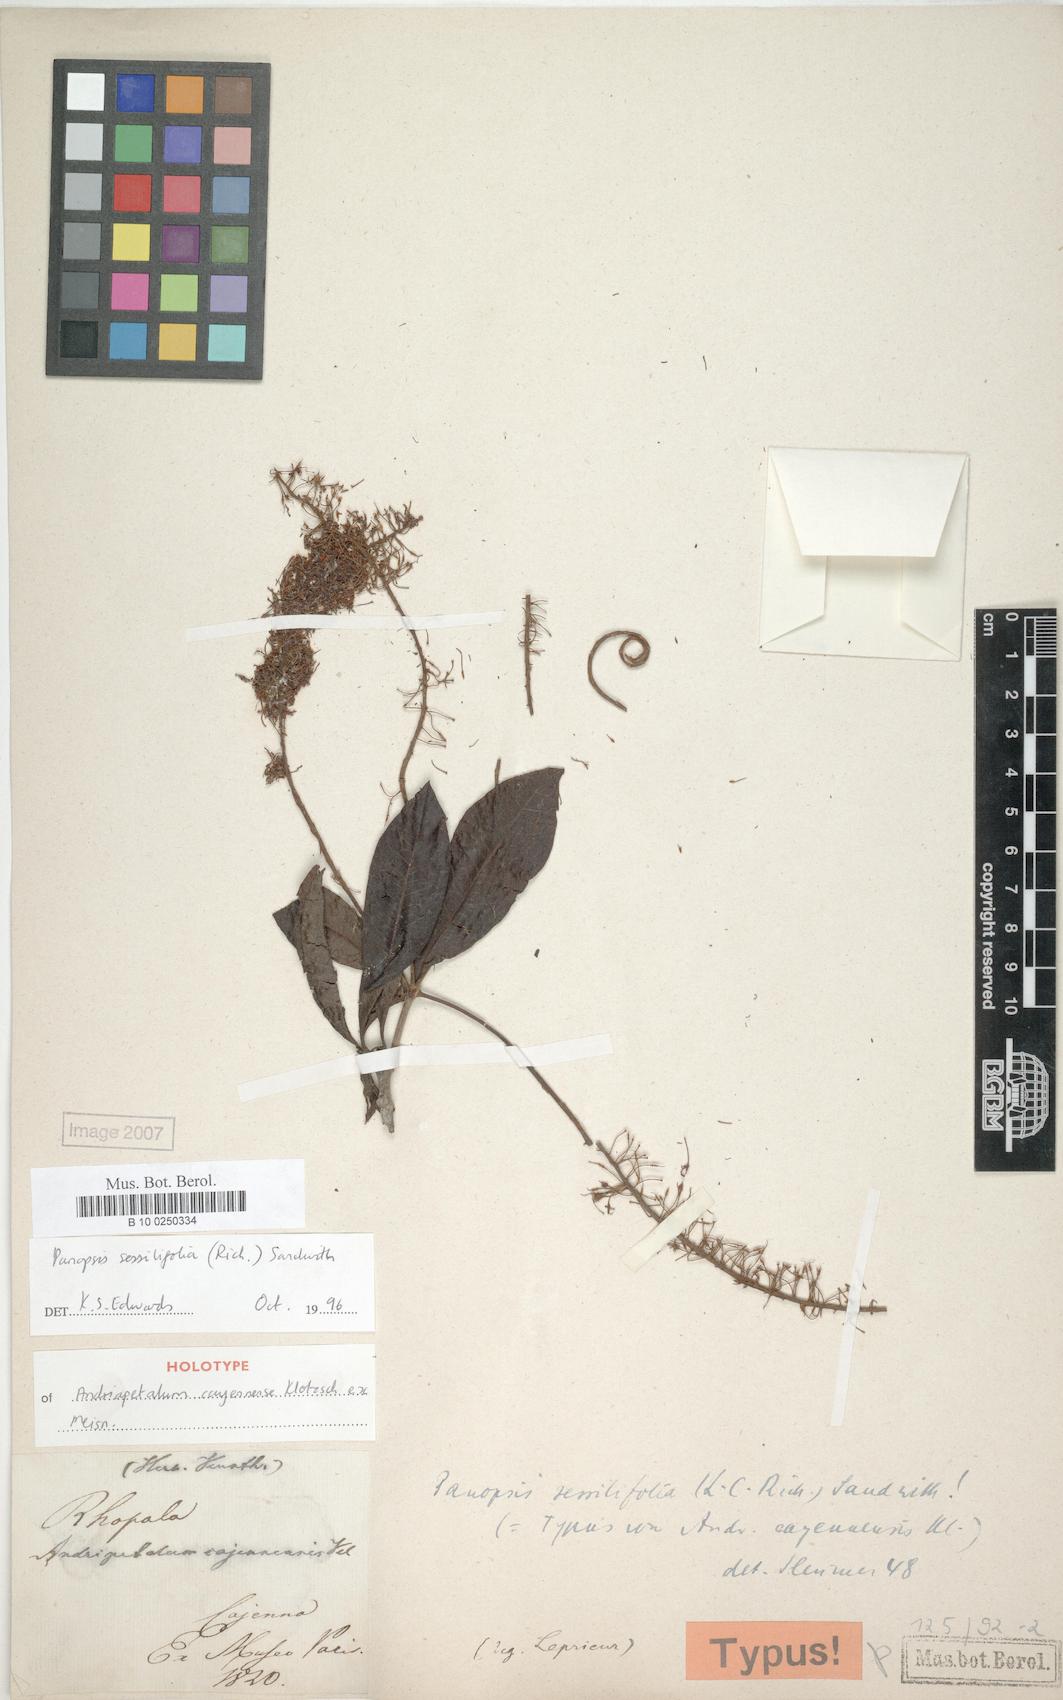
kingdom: Plantae
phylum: Tracheophyta
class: Magnoliopsida
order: Proteales
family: Proteaceae
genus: Panopsis
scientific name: Panopsis sessilifolia
